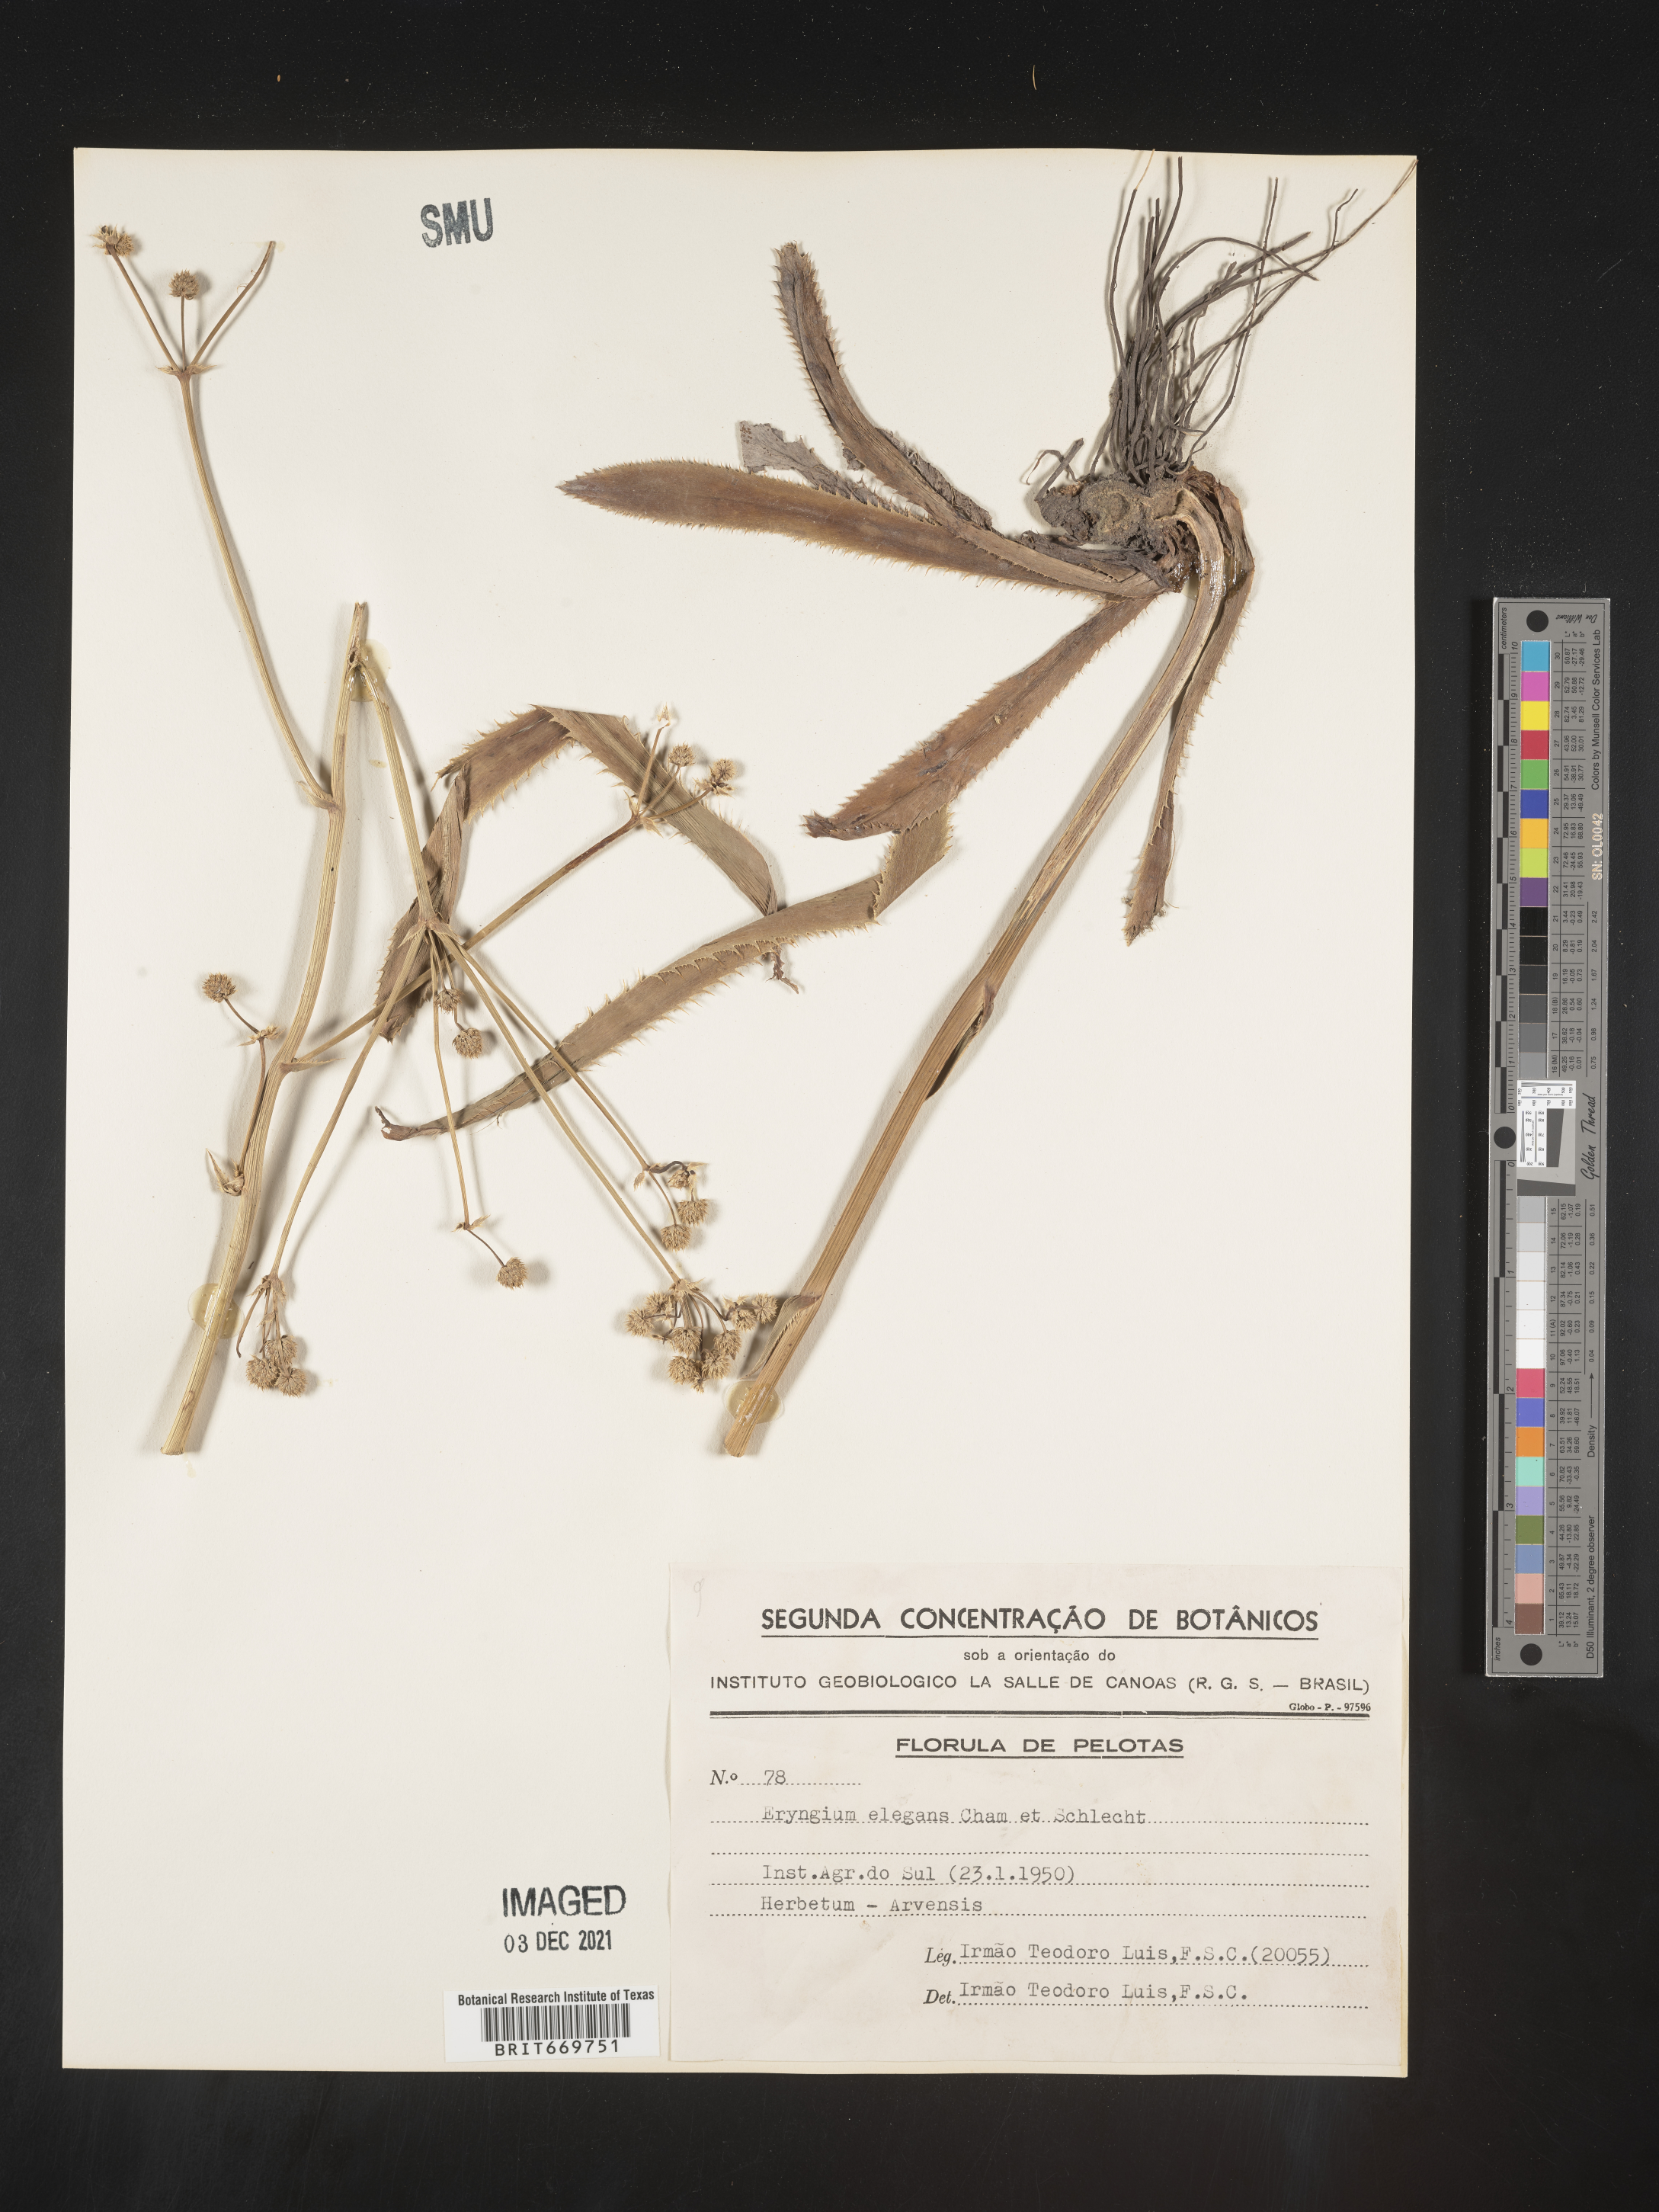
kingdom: Plantae
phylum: Tracheophyta
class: Magnoliopsida
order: Apiales
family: Apiaceae
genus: Eryngium
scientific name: Eryngium
